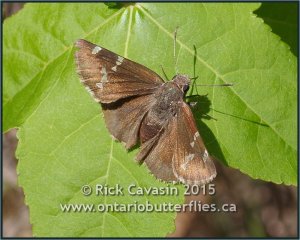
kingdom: Animalia
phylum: Arthropoda
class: Insecta
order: Lepidoptera
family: Hesperiidae
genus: Autochton
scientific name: Autochton
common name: Southern Cloudywing
